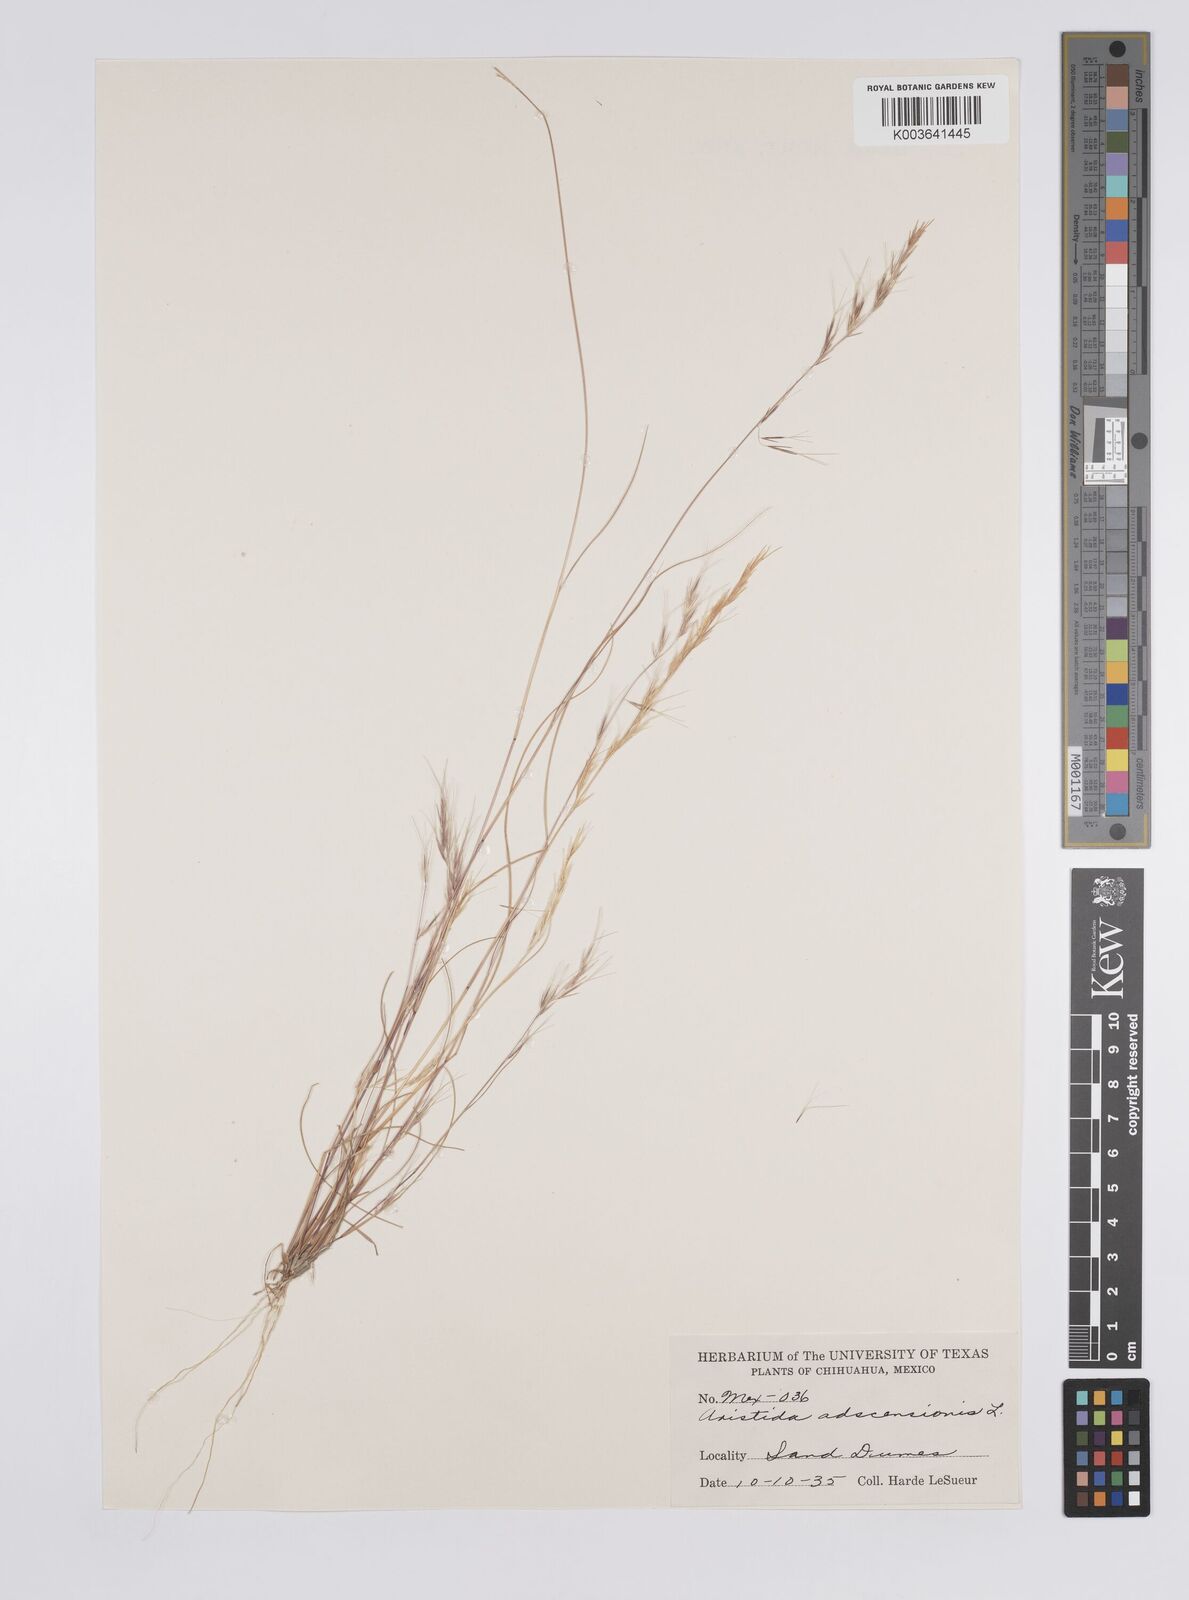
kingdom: Plantae
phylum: Tracheophyta
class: Liliopsida
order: Poales
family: Poaceae
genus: Aristida
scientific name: Aristida adscensionis
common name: Sixweeks threeawn
